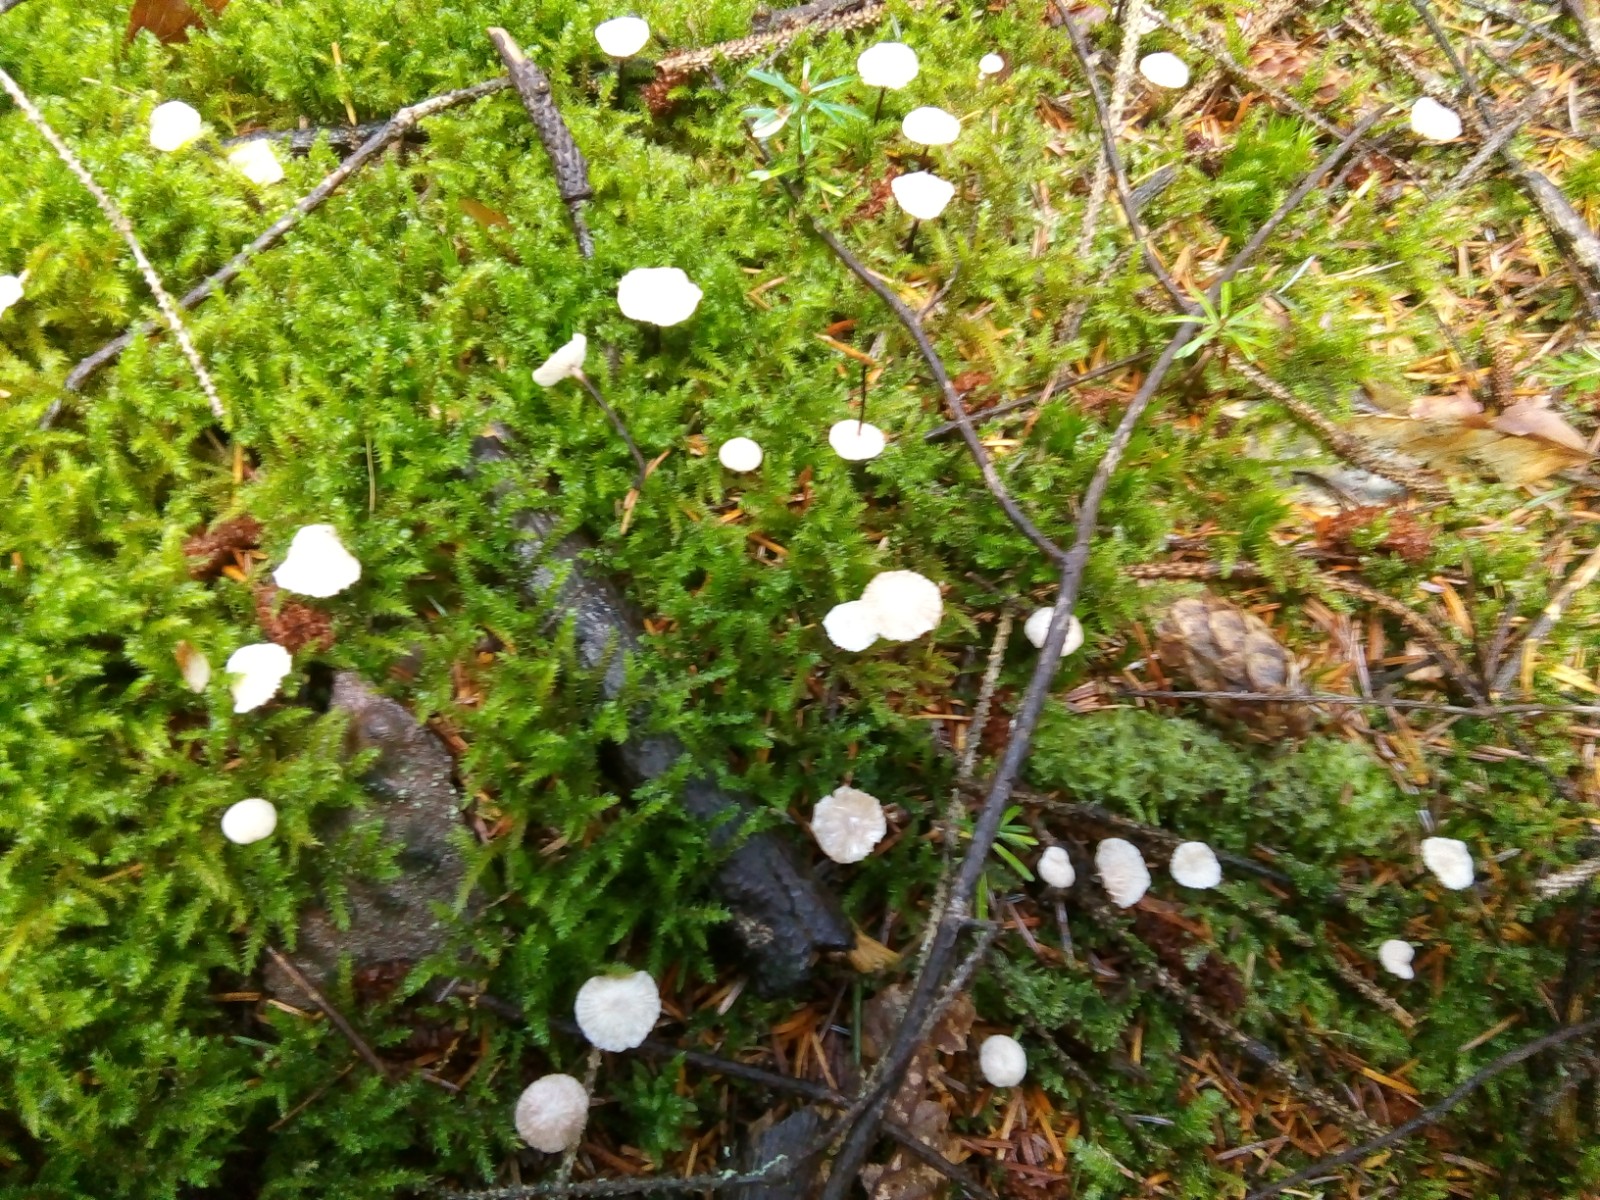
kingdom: Fungi
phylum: Basidiomycota
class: Agaricomycetes
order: Agaricales
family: Omphalotaceae
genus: Paragymnopus
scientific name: Paragymnopus perforans
